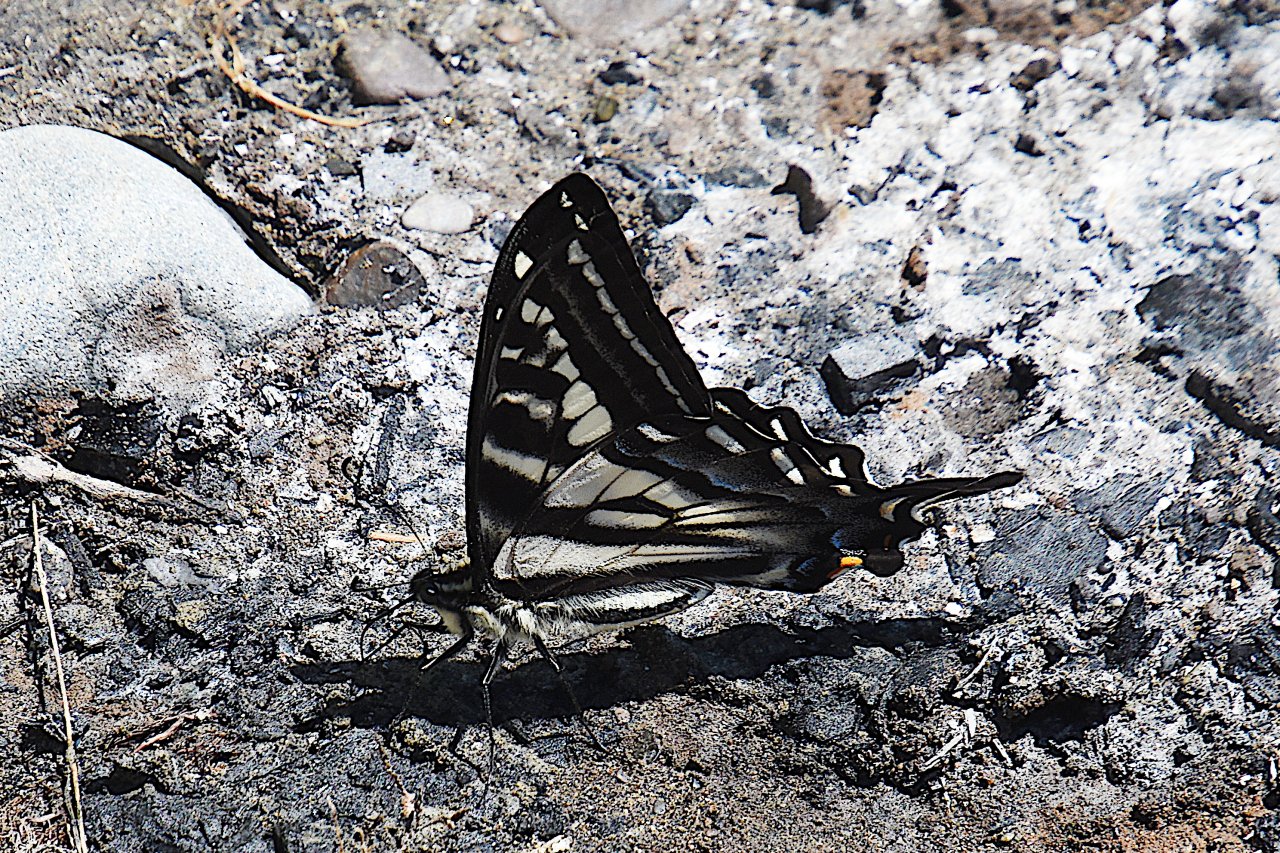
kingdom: Animalia
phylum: Arthropoda
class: Insecta
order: Lepidoptera
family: Papilionidae
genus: Pterourus
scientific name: Pterourus eurymedon
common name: Pale Swallowtail
